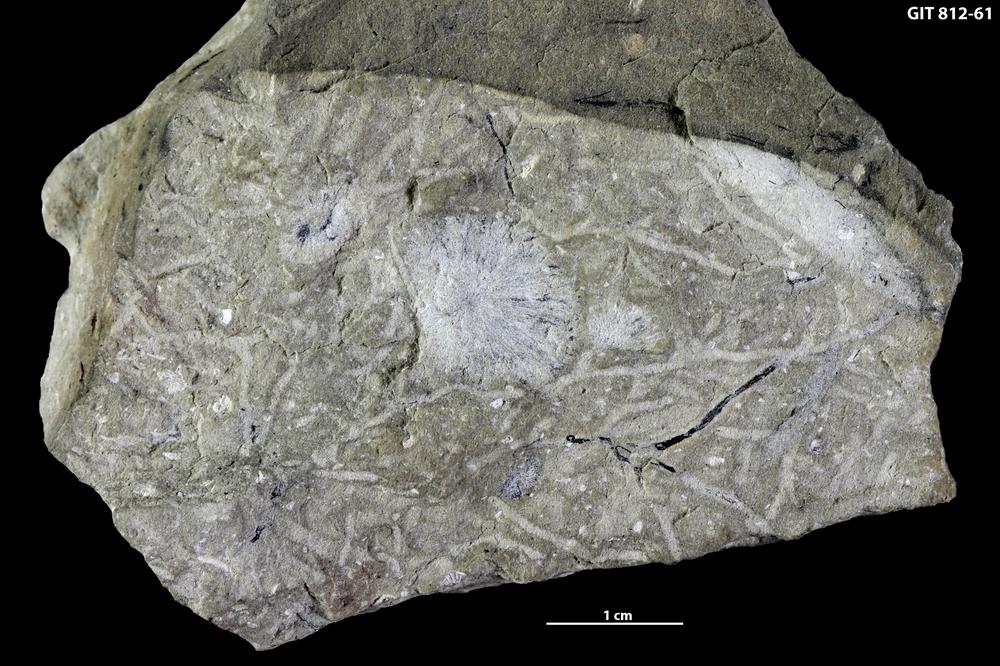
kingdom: Animalia
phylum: Porifera
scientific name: Porifera
